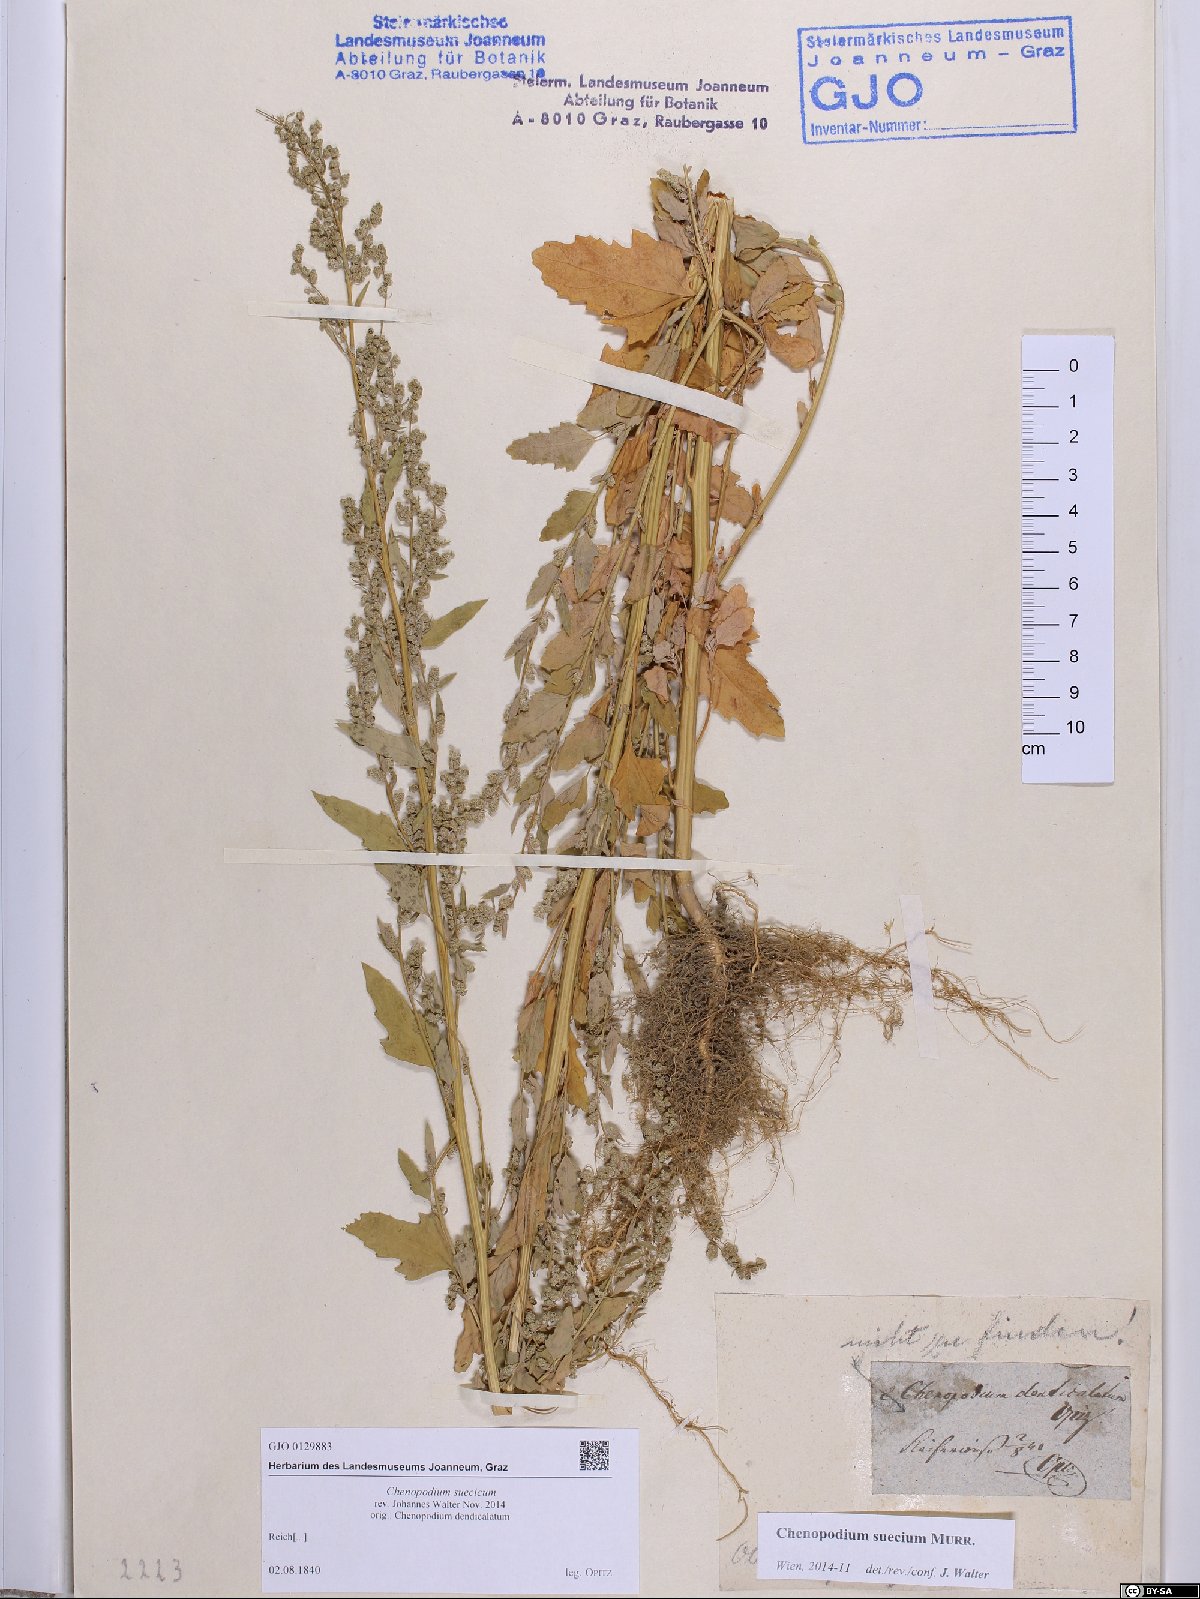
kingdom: Plantae
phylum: Tracheophyta
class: Magnoliopsida
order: Caryophyllales
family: Amaranthaceae
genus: Chenopodium
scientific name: Chenopodium suecicum
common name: Swedish goosefoot
